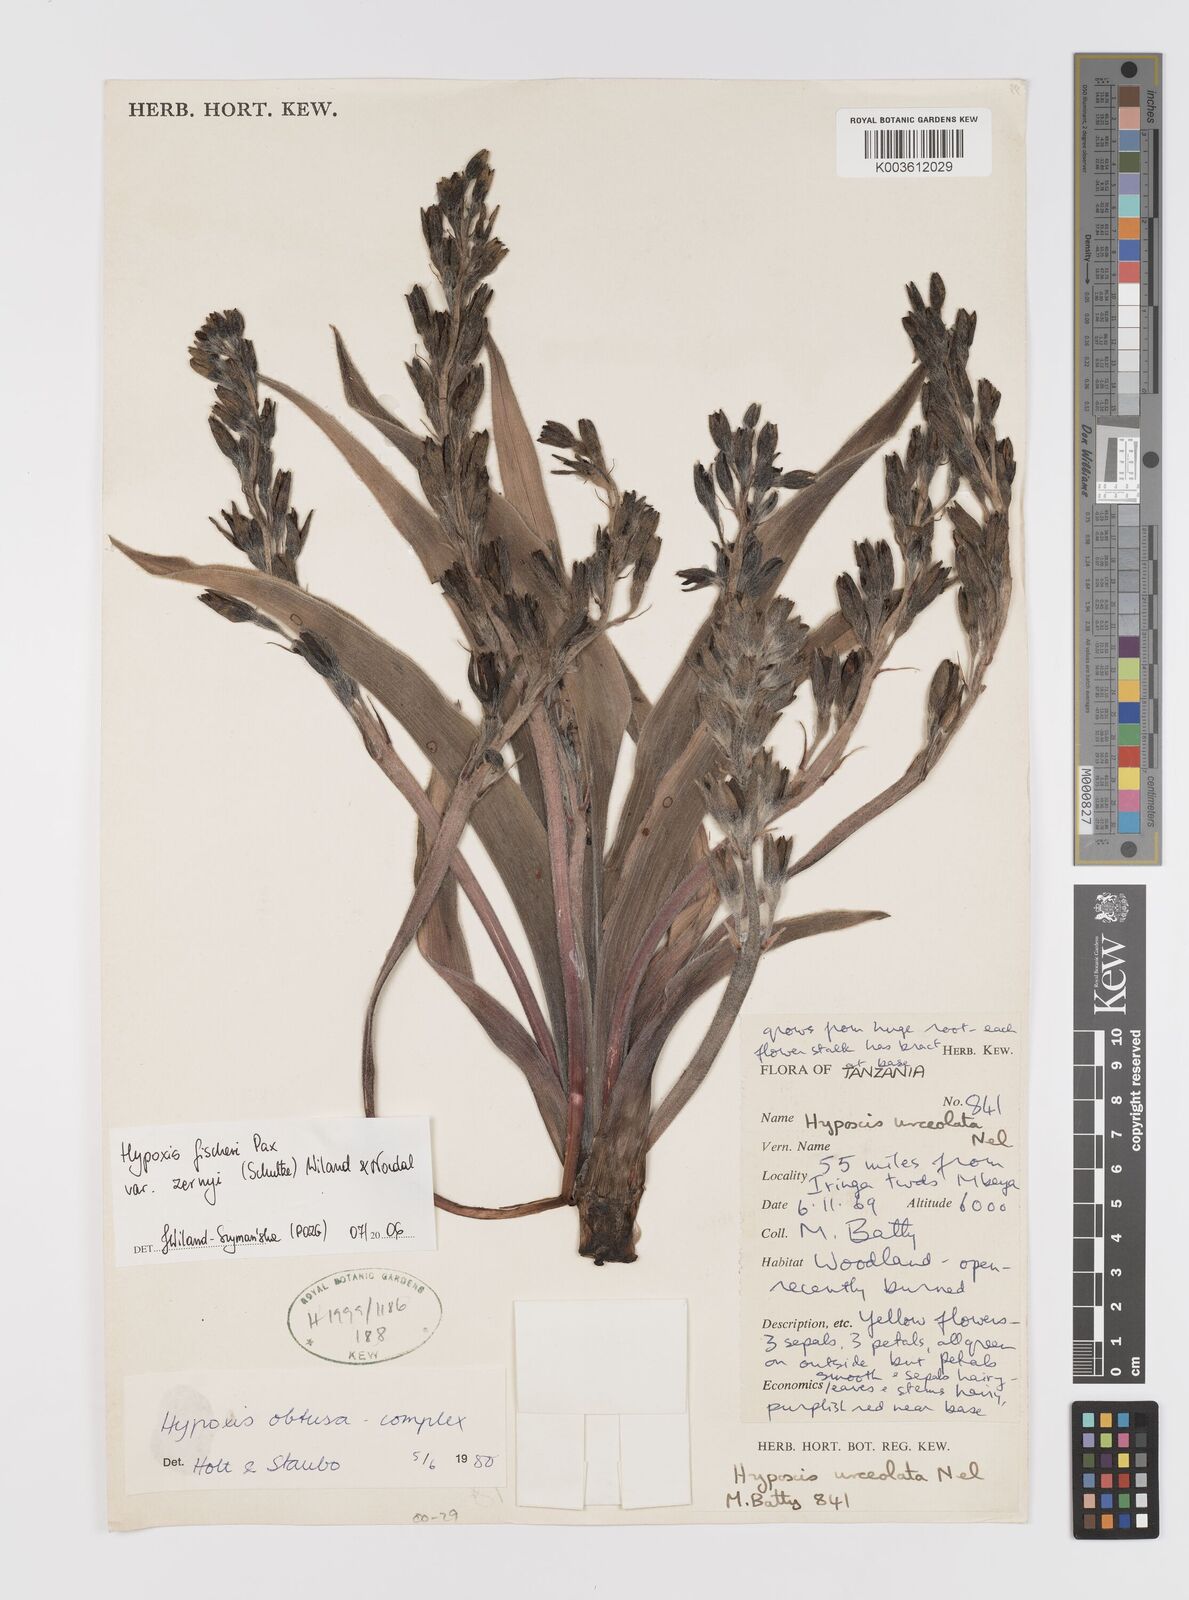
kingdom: Plantae
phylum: Tracheophyta
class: Liliopsida
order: Asparagales
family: Hypoxidaceae
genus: Hypoxis
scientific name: Hypoxis fischeri
